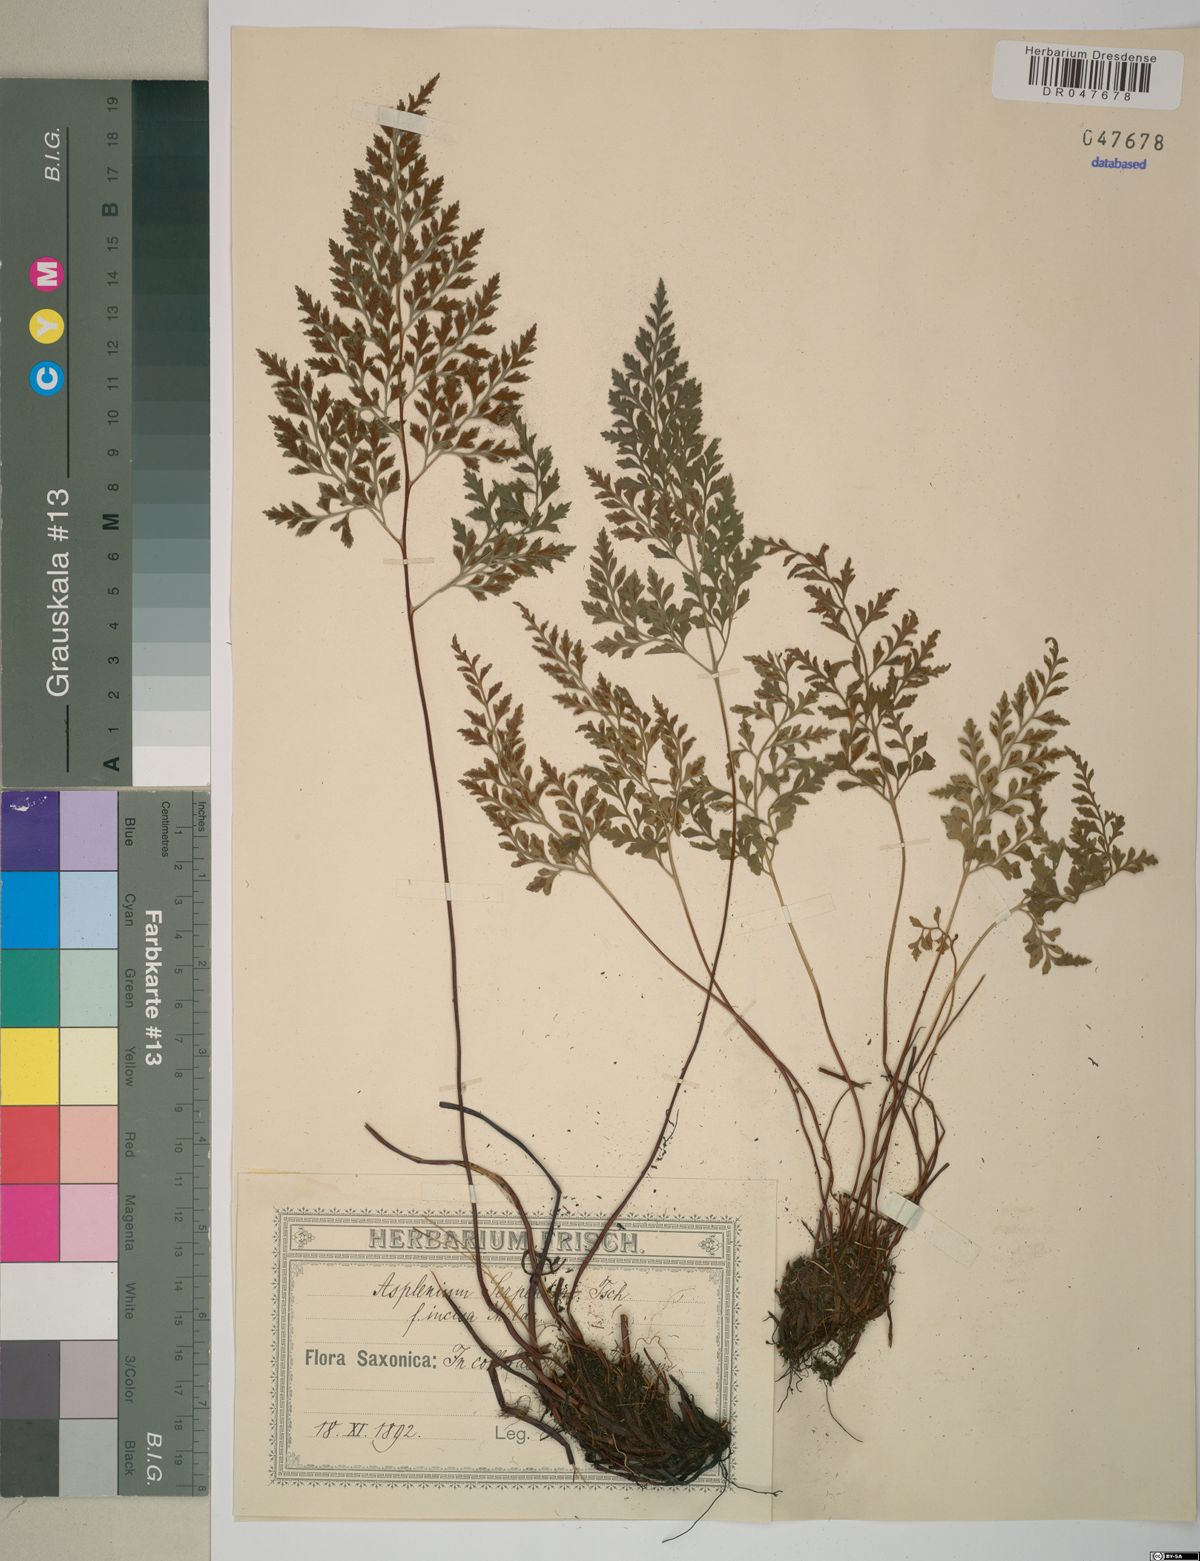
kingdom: Plantae
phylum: Tracheophyta
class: Polypodiopsida
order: Polypodiales
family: Aspleniaceae
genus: Asplenium
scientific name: Asplenium cuneifolium
